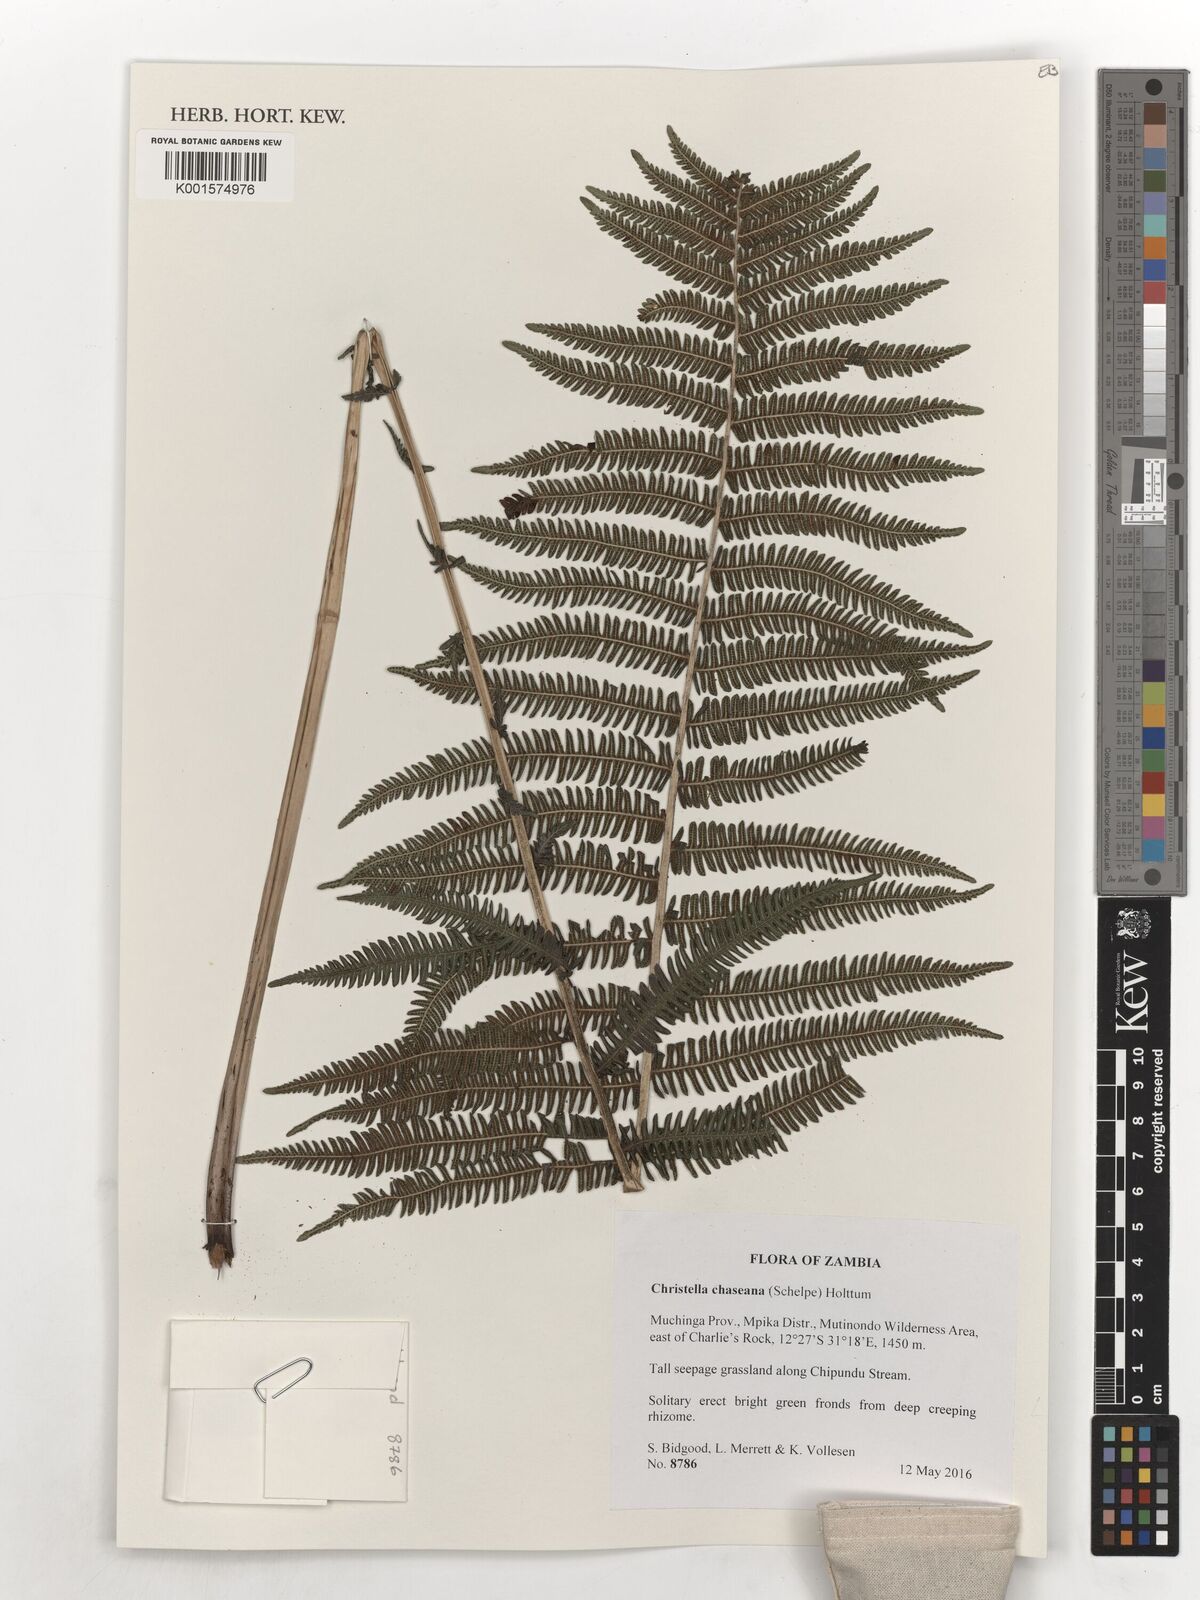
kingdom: Plantae
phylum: Tracheophyta
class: Polypodiopsida
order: Polypodiales
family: Thelypteridaceae
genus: Christella
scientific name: Christella chaseana
